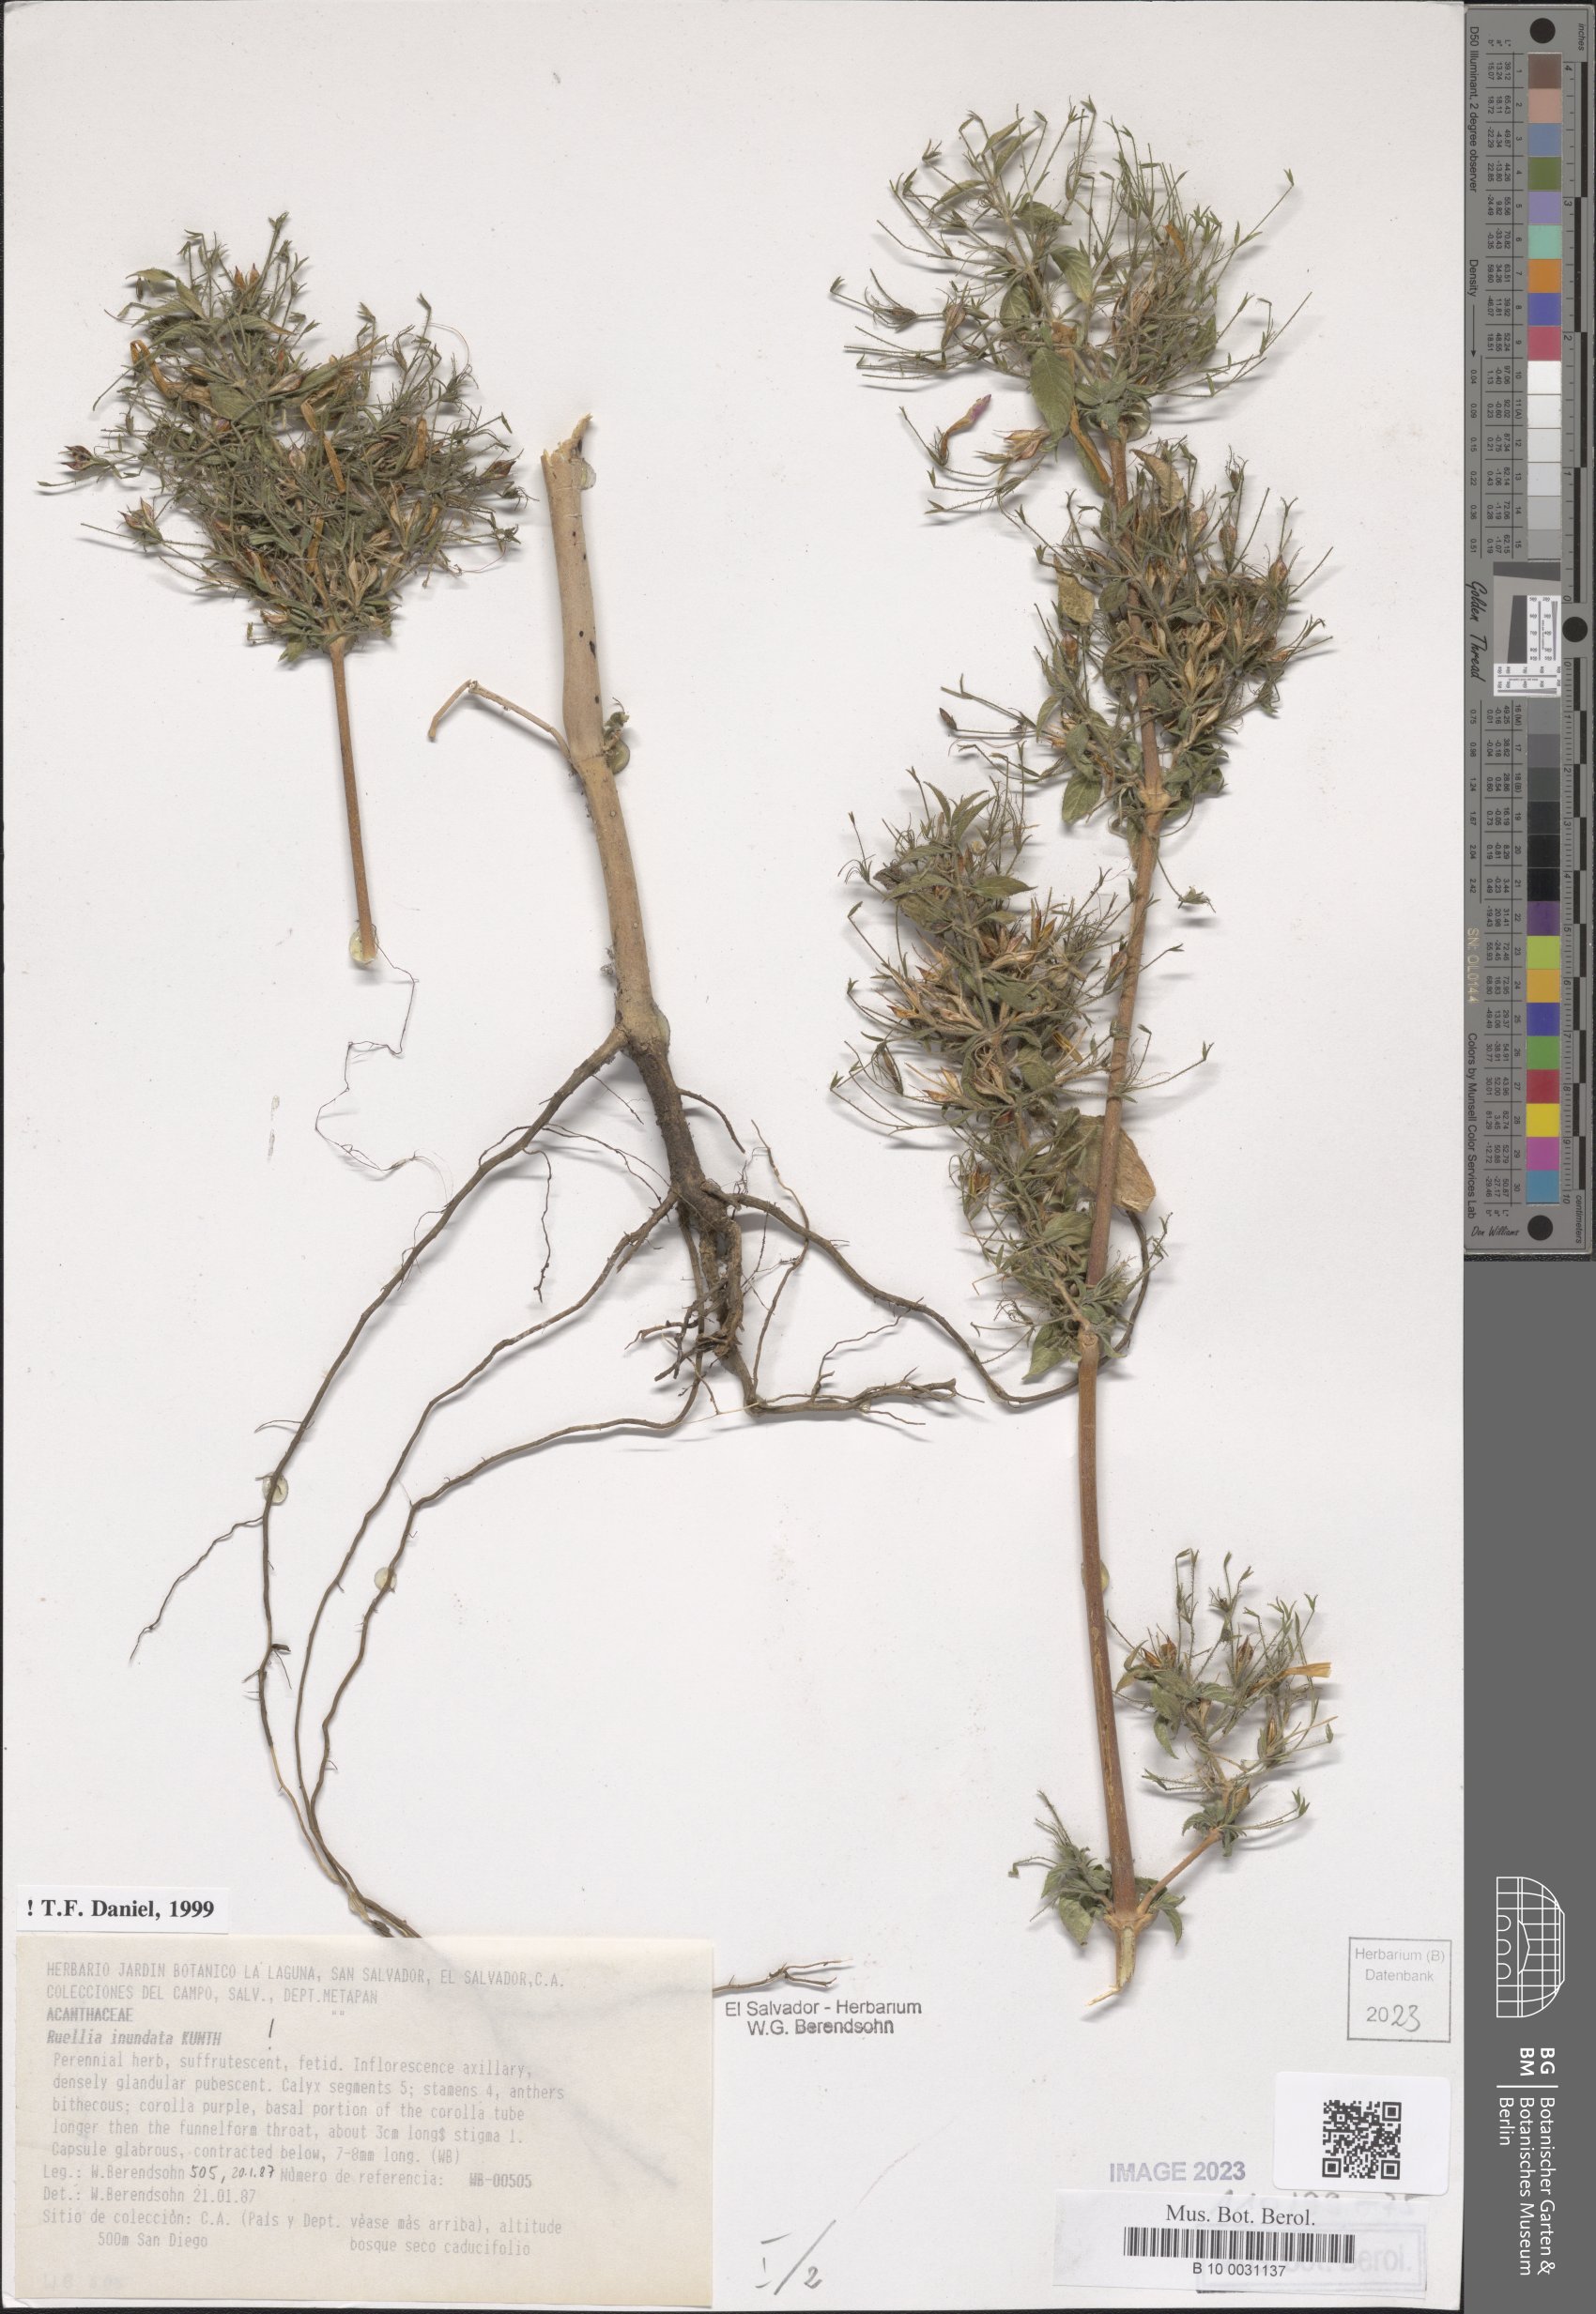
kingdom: Plantae
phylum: Tracheophyta
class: Magnoliopsida
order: Lamiales
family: Acanthaceae
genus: Ruellia
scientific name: Ruellia inundata
